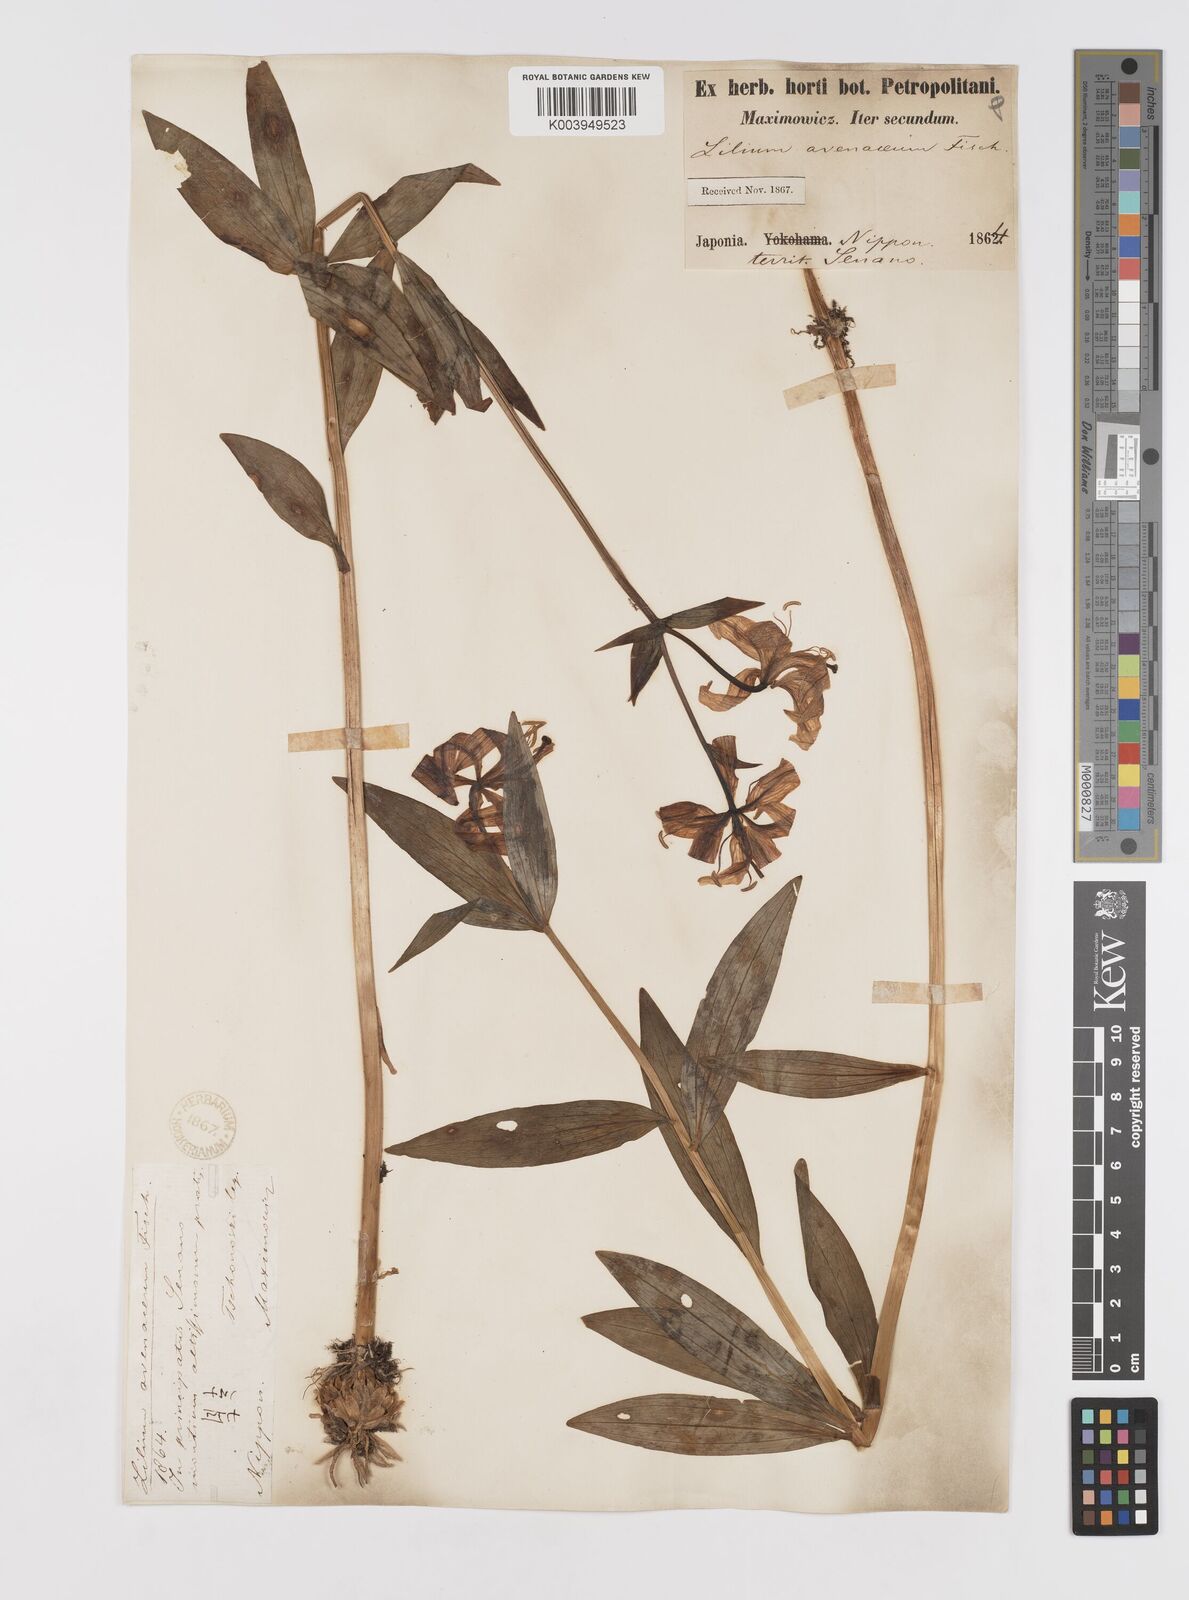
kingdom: Plantae
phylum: Tracheophyta
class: Liliopsida
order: Liliales
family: Liliaceae
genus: Lilium
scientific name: Lilium medeoloides
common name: Wheel lily
